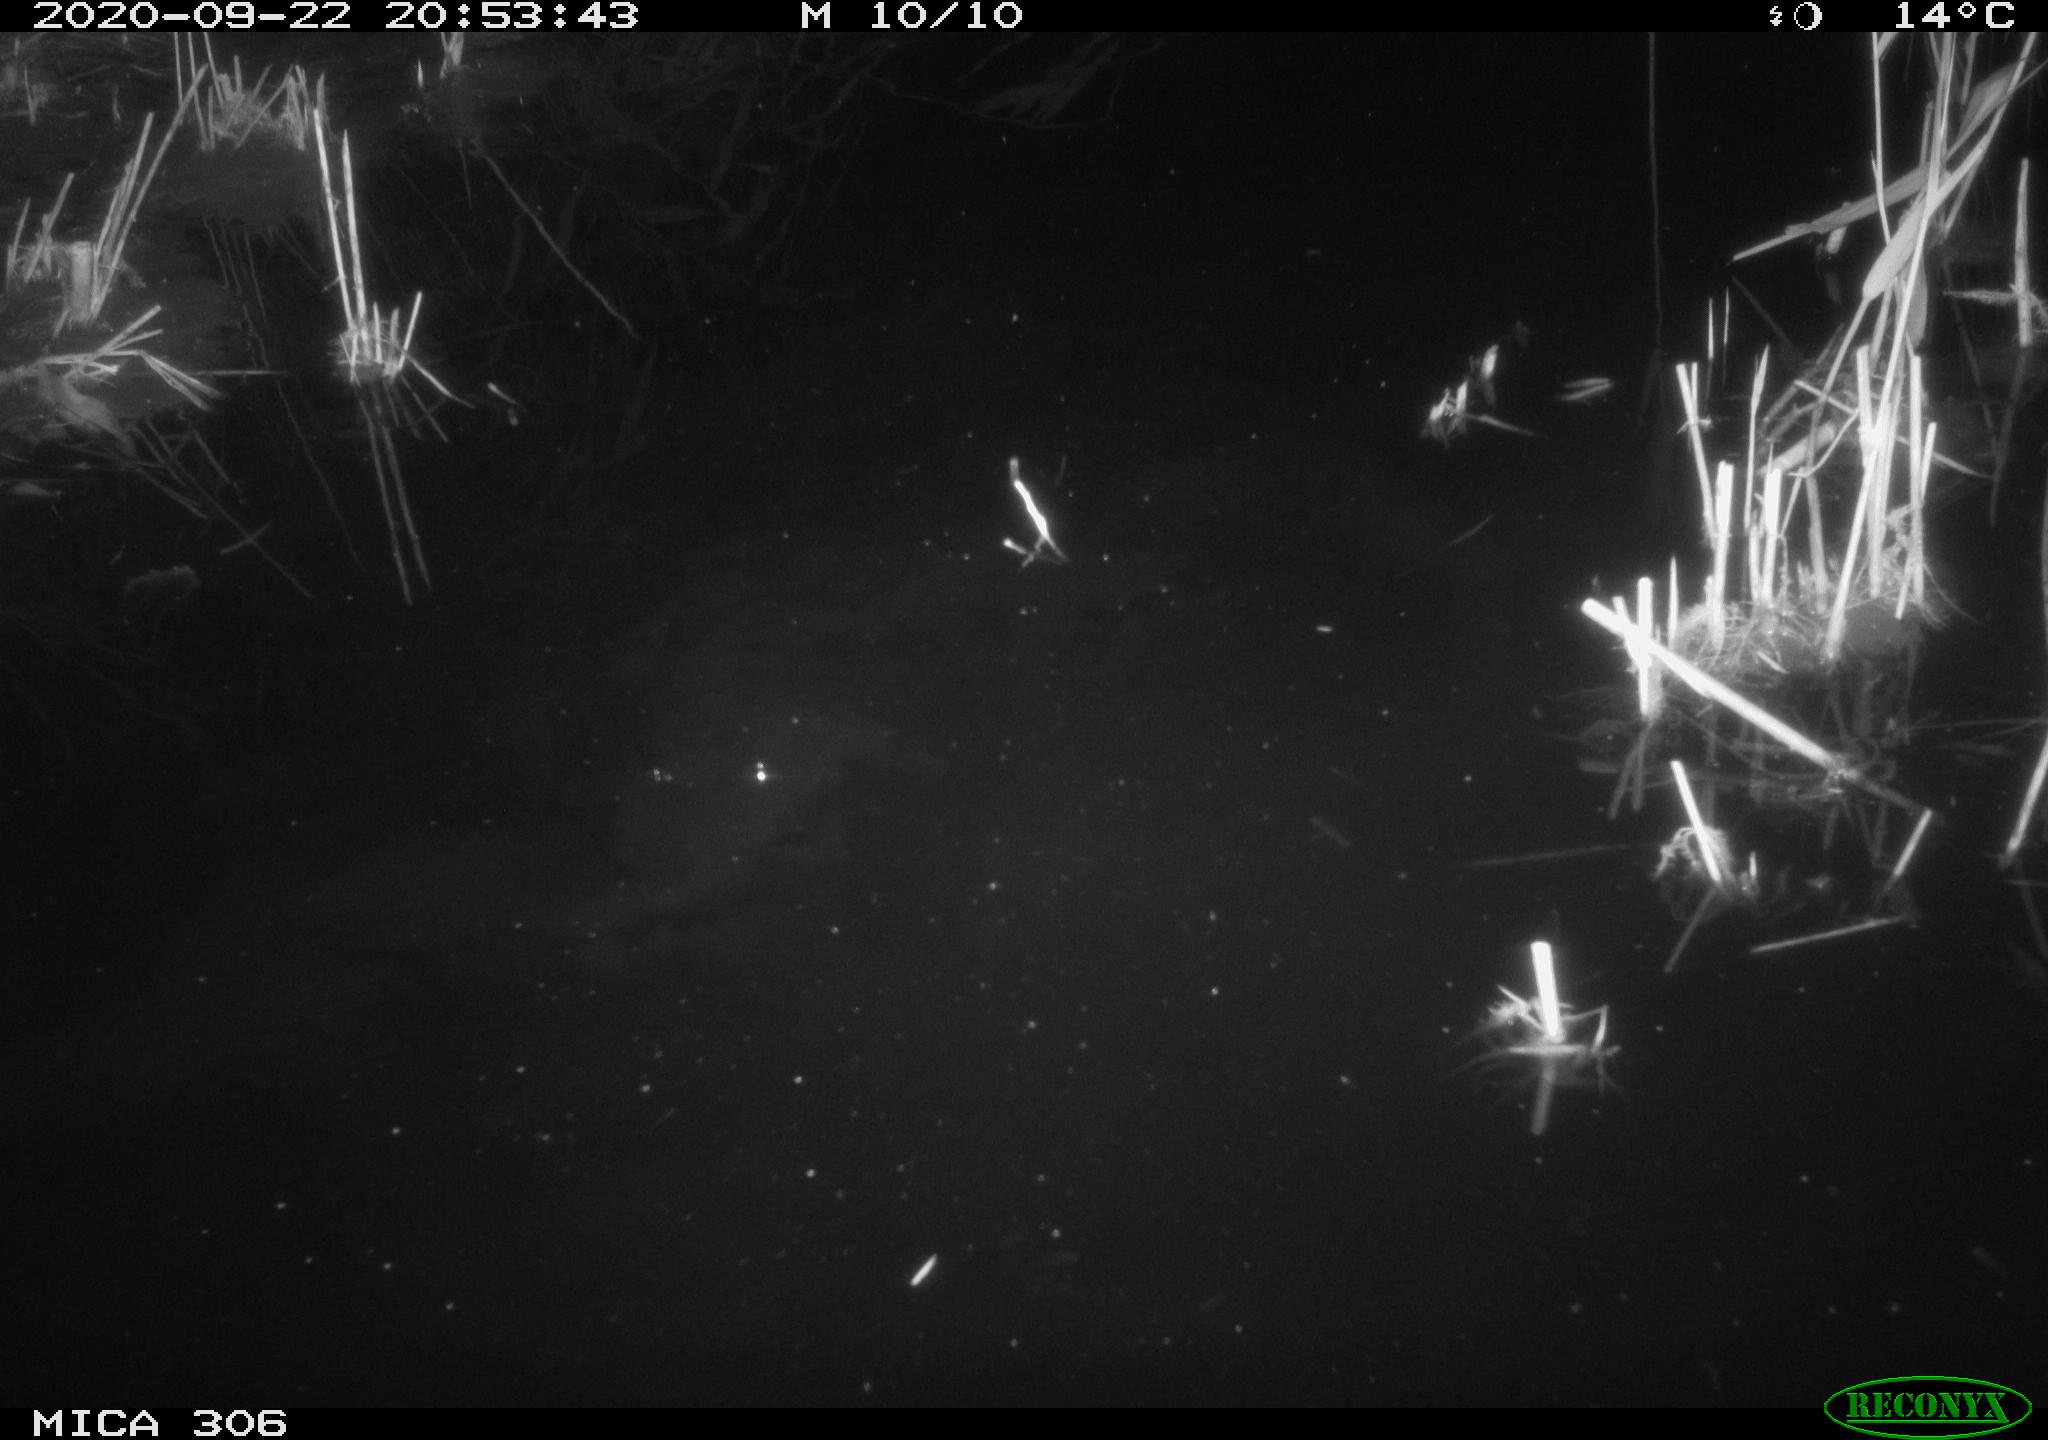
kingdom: Animalia
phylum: Chordata
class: Mammalia
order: Rodentia
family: Muridae
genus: Rattus
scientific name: Rattus norvegicus
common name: Brown rat
